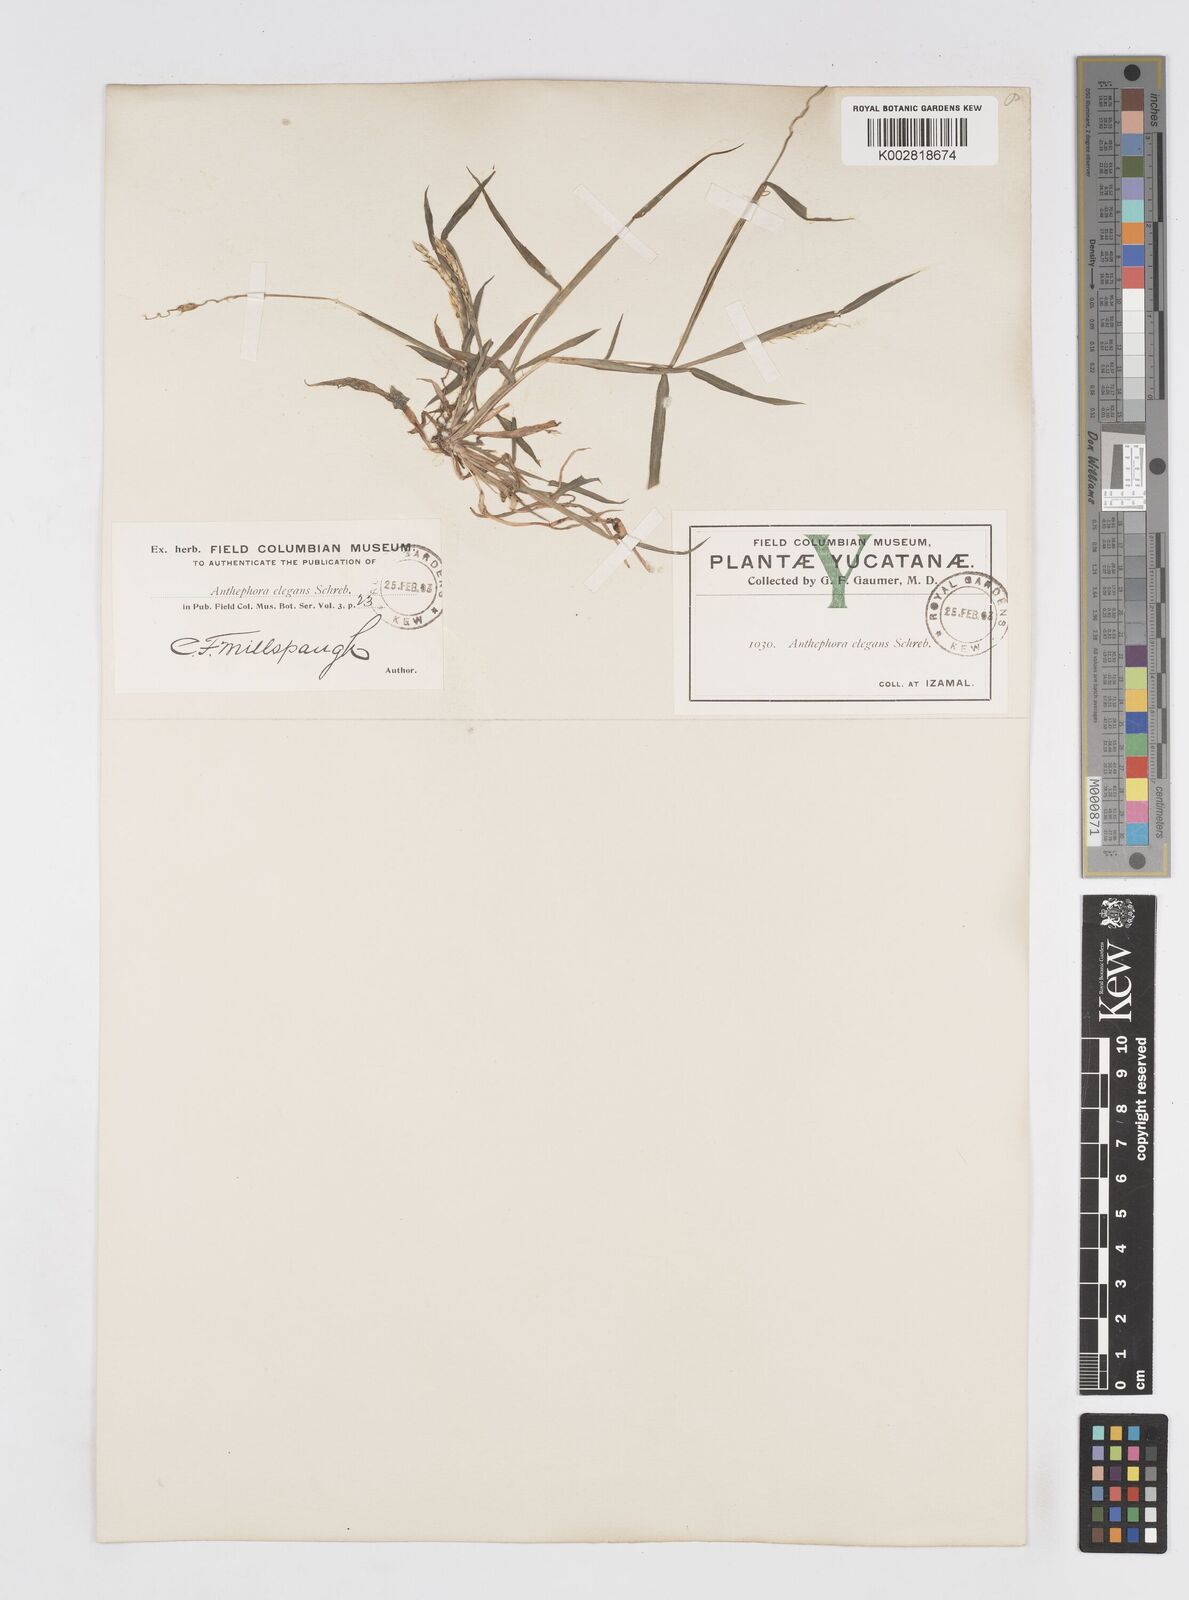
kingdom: Plantae
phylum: Tracheophyta
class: Liliopsida
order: Poales
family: Poaceae
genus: Anthephora
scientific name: Anthephora hermaphrodita
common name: Oldfield grass
